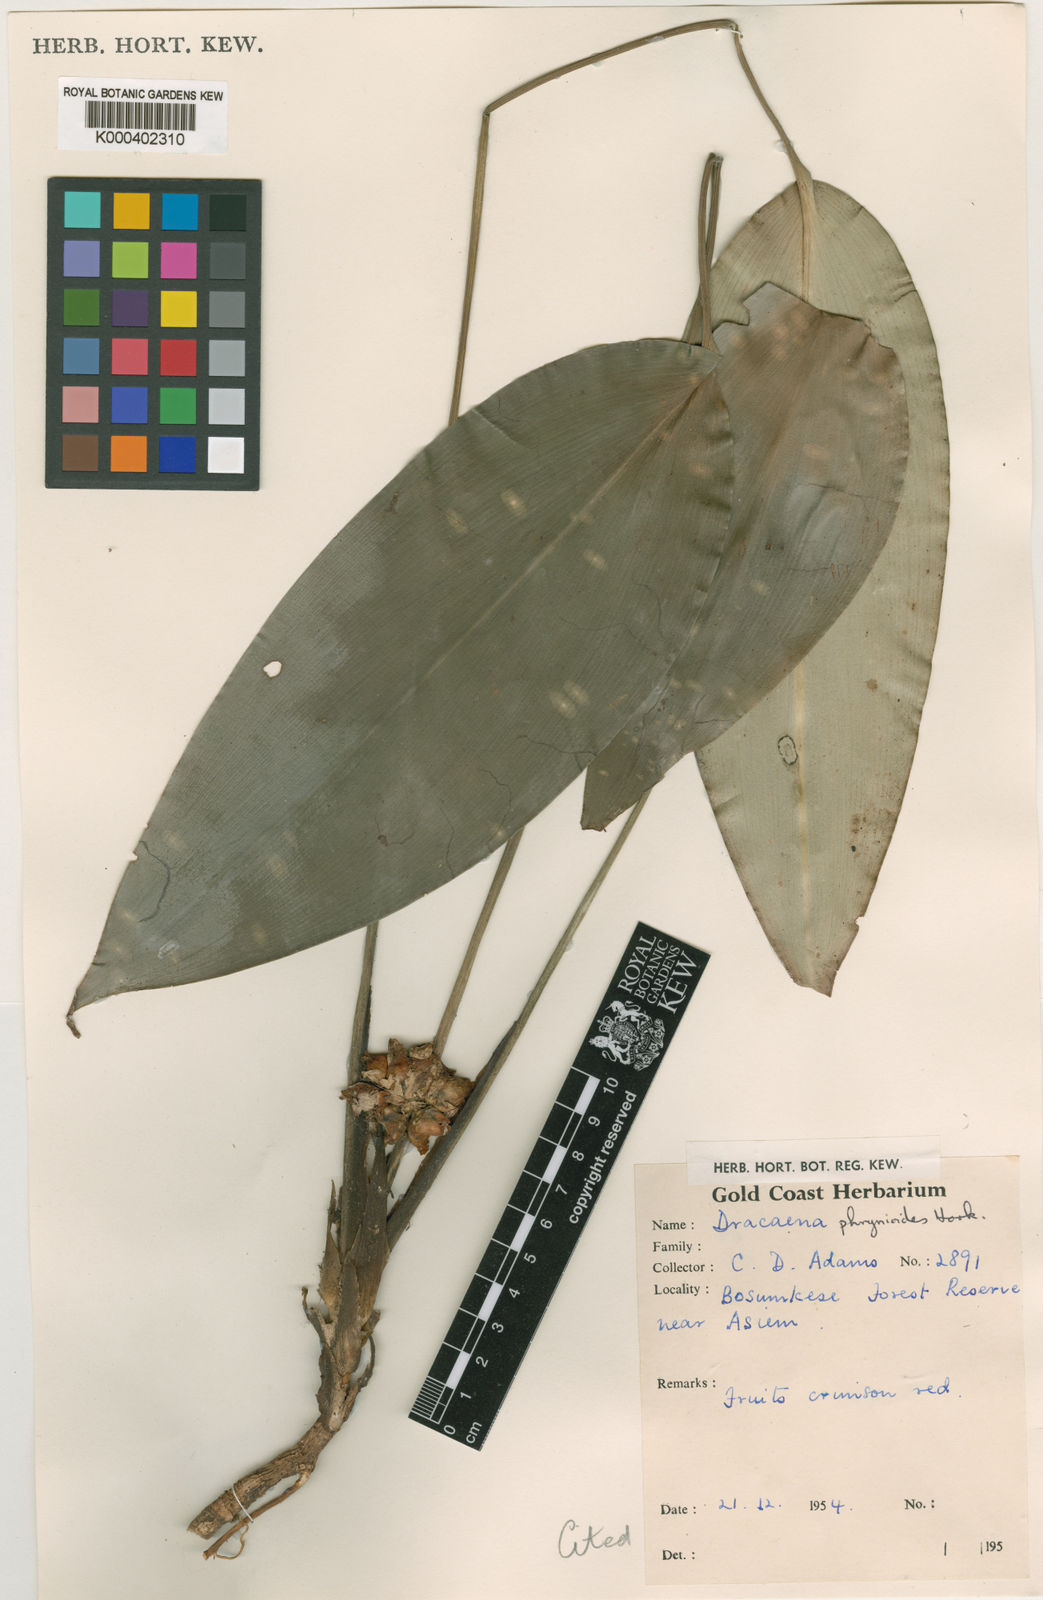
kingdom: Plantae
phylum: Tracheophyta
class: Liliopsida
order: Asparagales
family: Asparagaceae
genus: Dracaena
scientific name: Dracaena phrynioides
